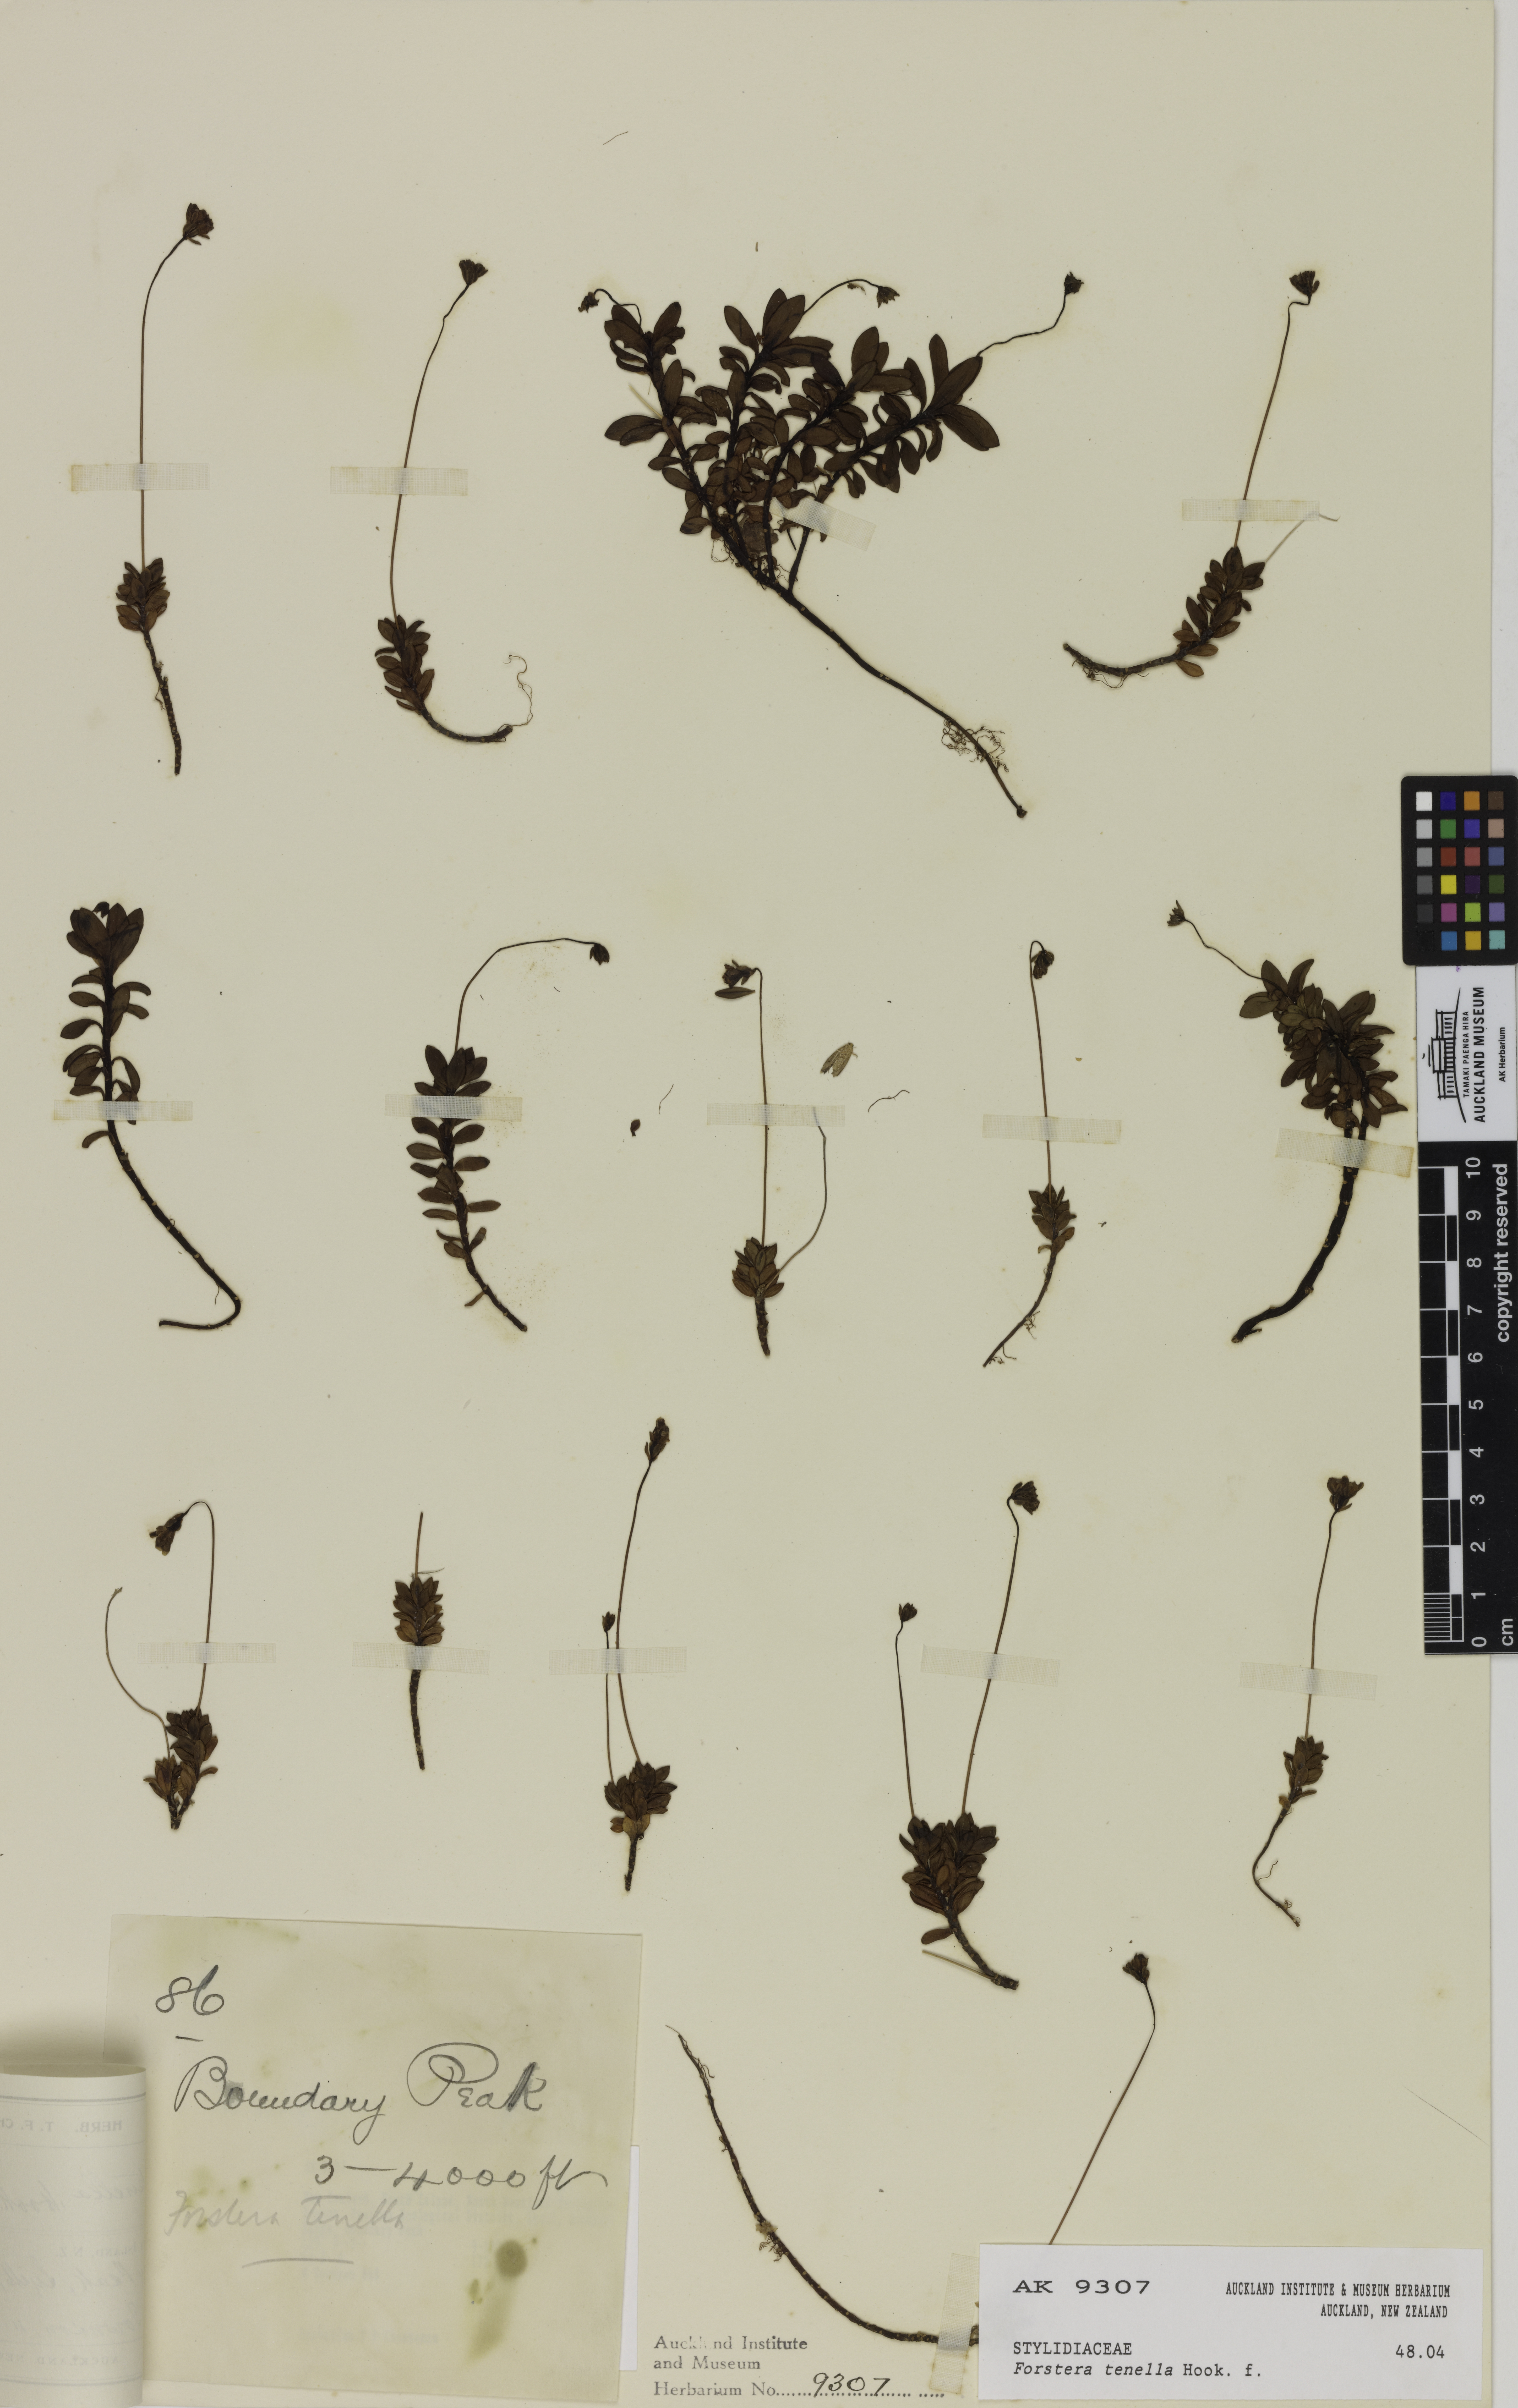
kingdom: Plantae
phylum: Tracheophyta
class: Magnoliopsida
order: Asterales
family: Stylidiaceae
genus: Forstera
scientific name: Forstera tenella
